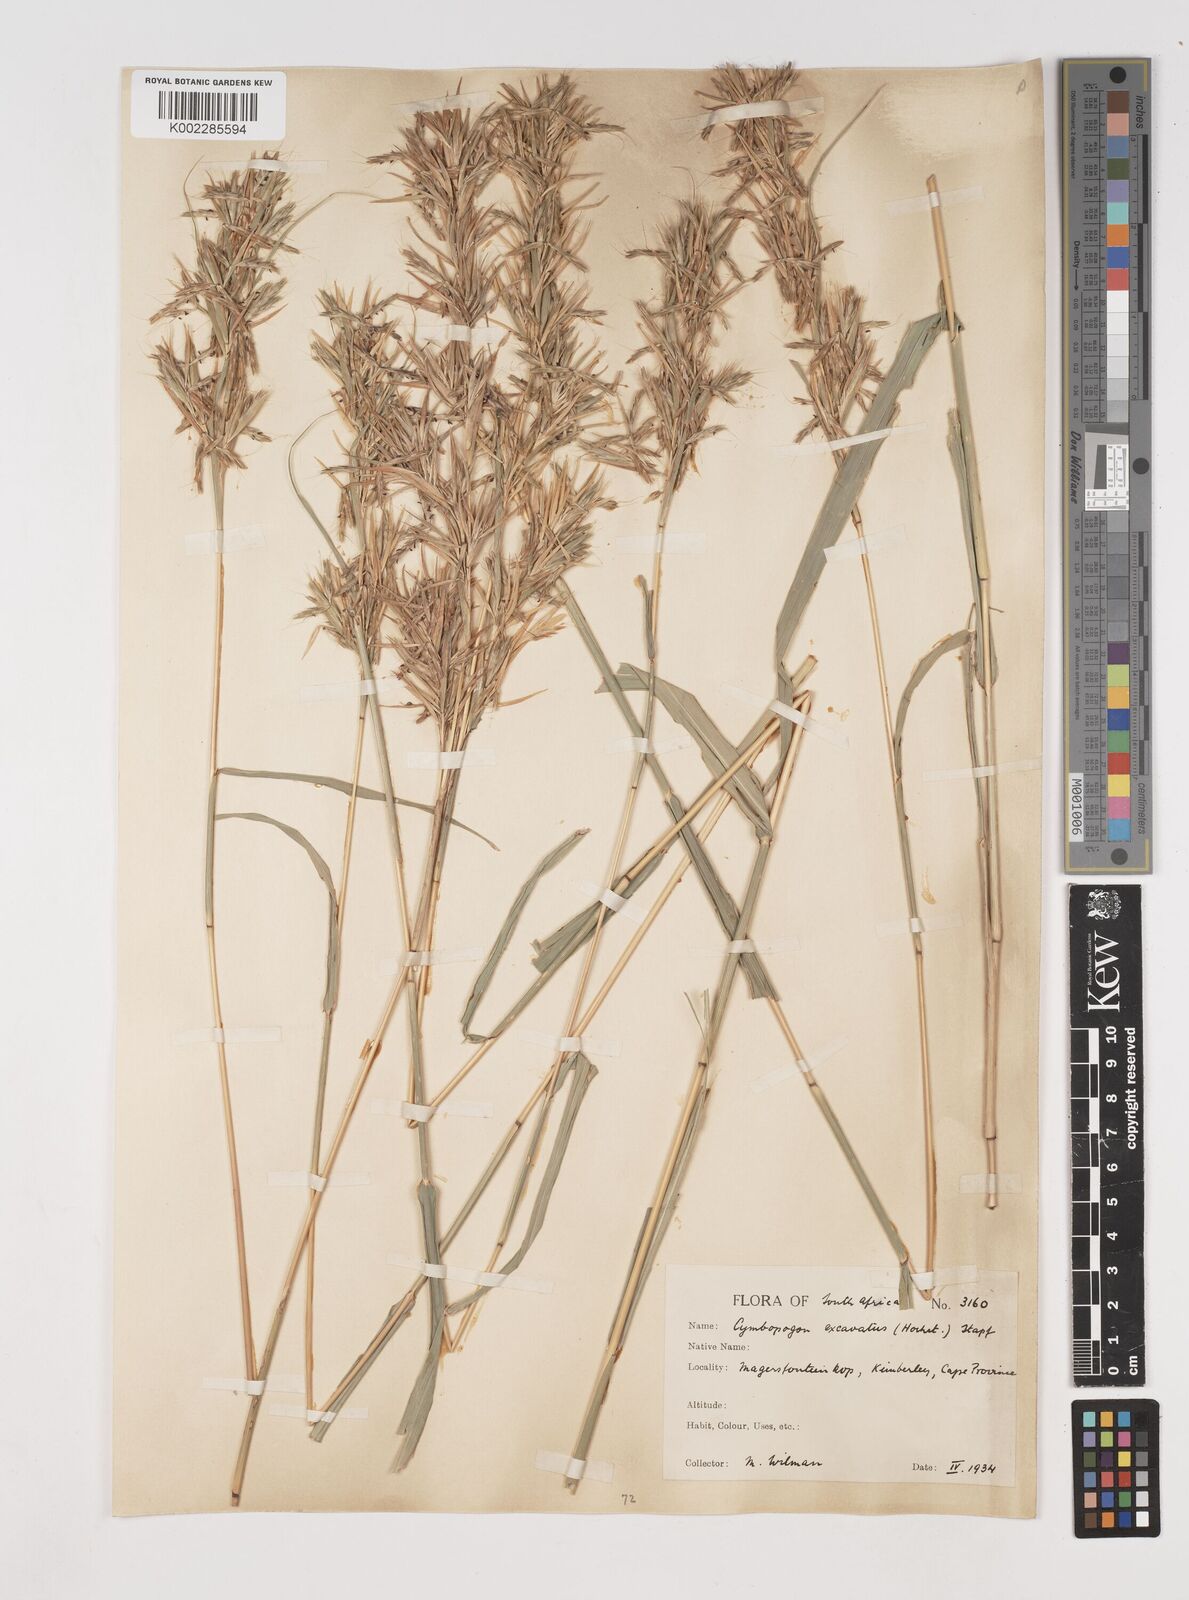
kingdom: Plantae
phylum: Tracheophyta
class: Liliopsida
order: Poales
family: Poaceae
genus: Cymbopogon
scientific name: Cymbopogon caesius
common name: Kachi grass
